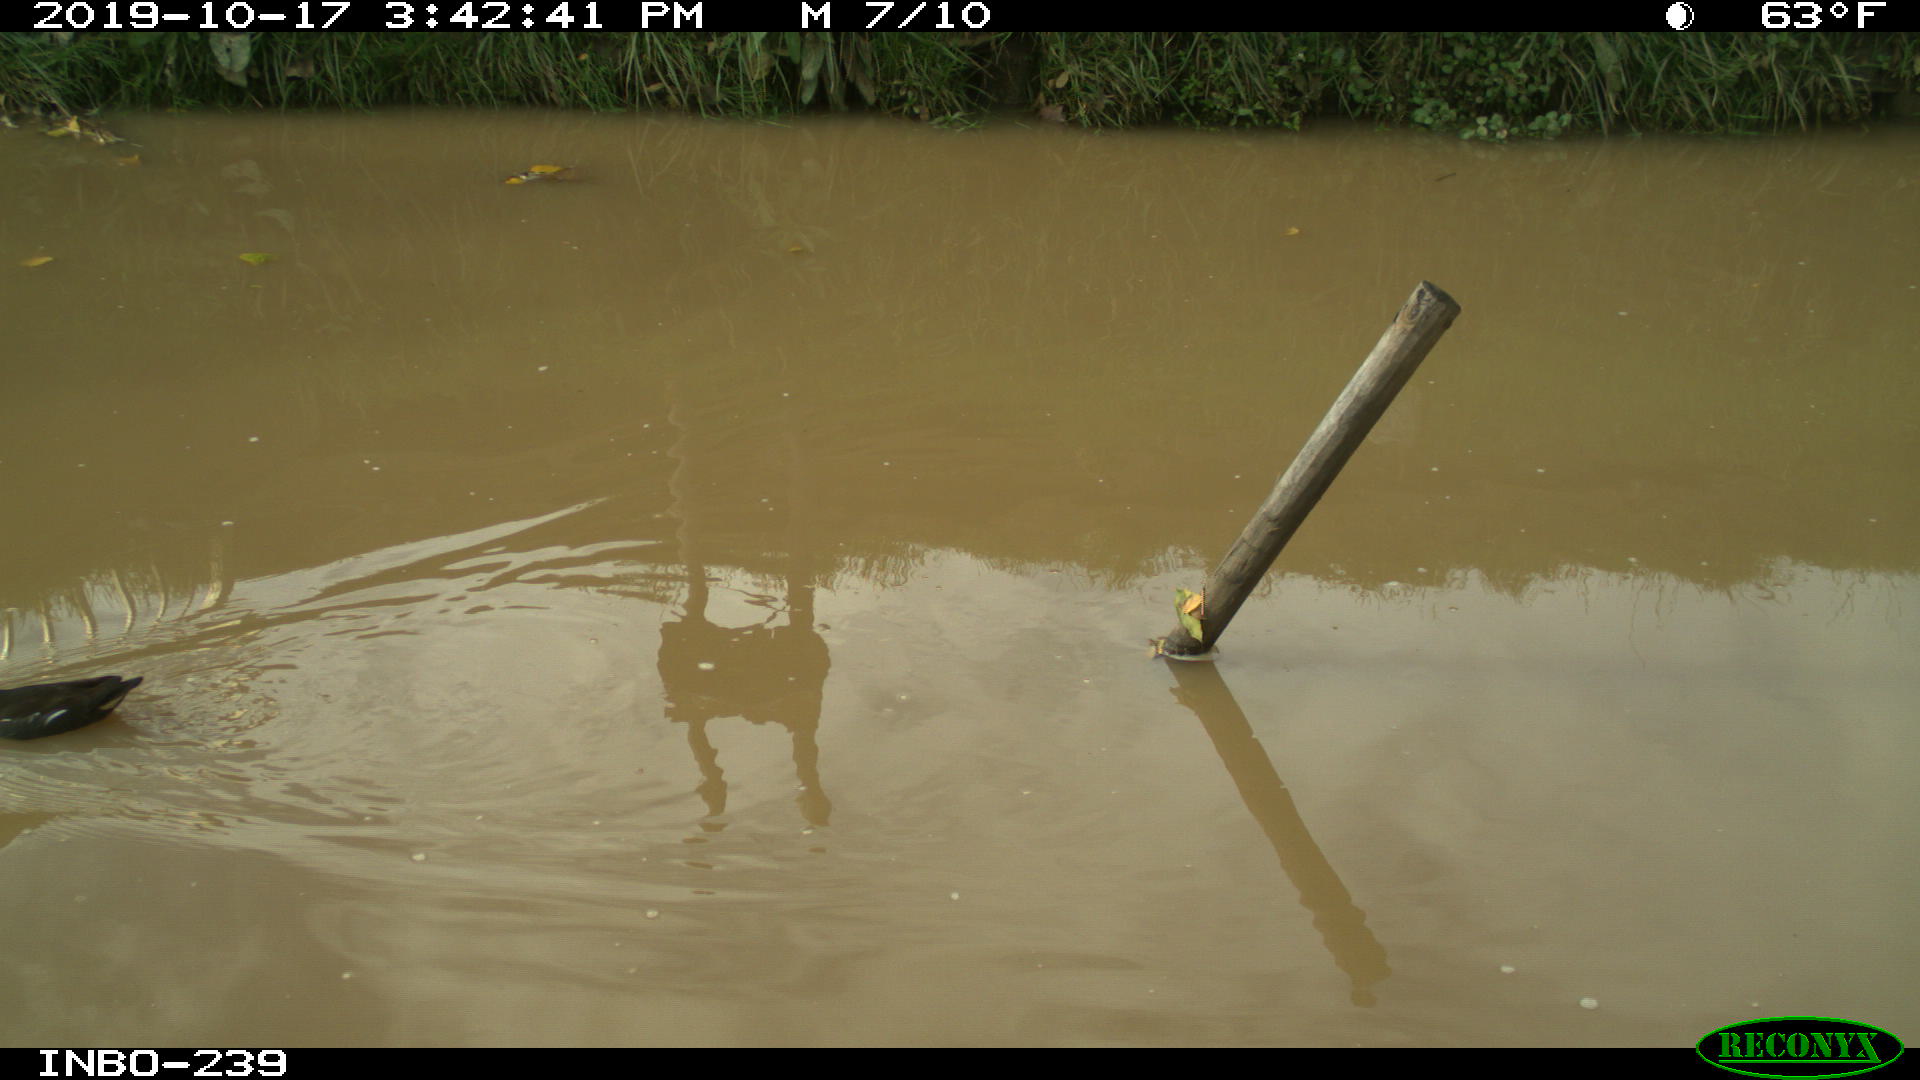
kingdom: Animalia
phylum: Chordata
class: Aves
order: Gruiformes
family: Rallidae
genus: Gallinula
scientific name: Gallinula chloropus
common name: Common moorhen
